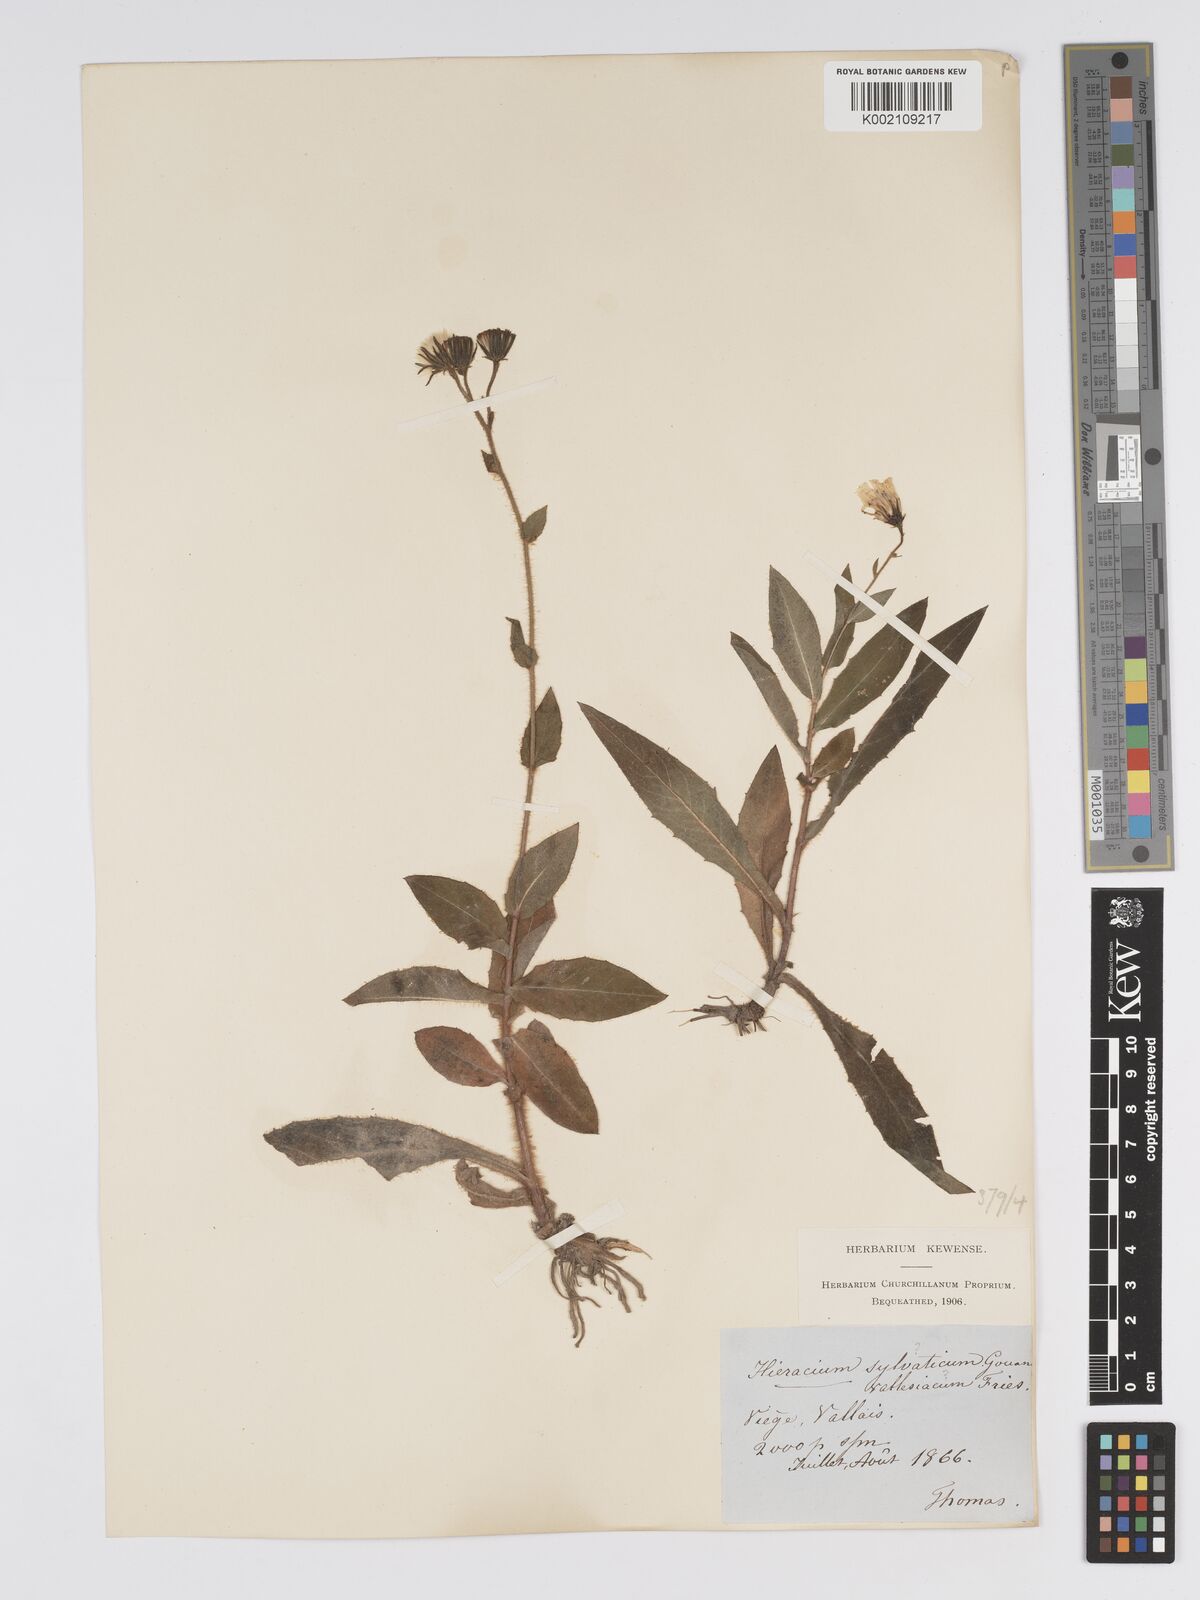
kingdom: Plantae
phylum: Tracheophyta
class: Magnoliopsida
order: Asterales
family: Asteraceae
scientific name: Asteraceae
